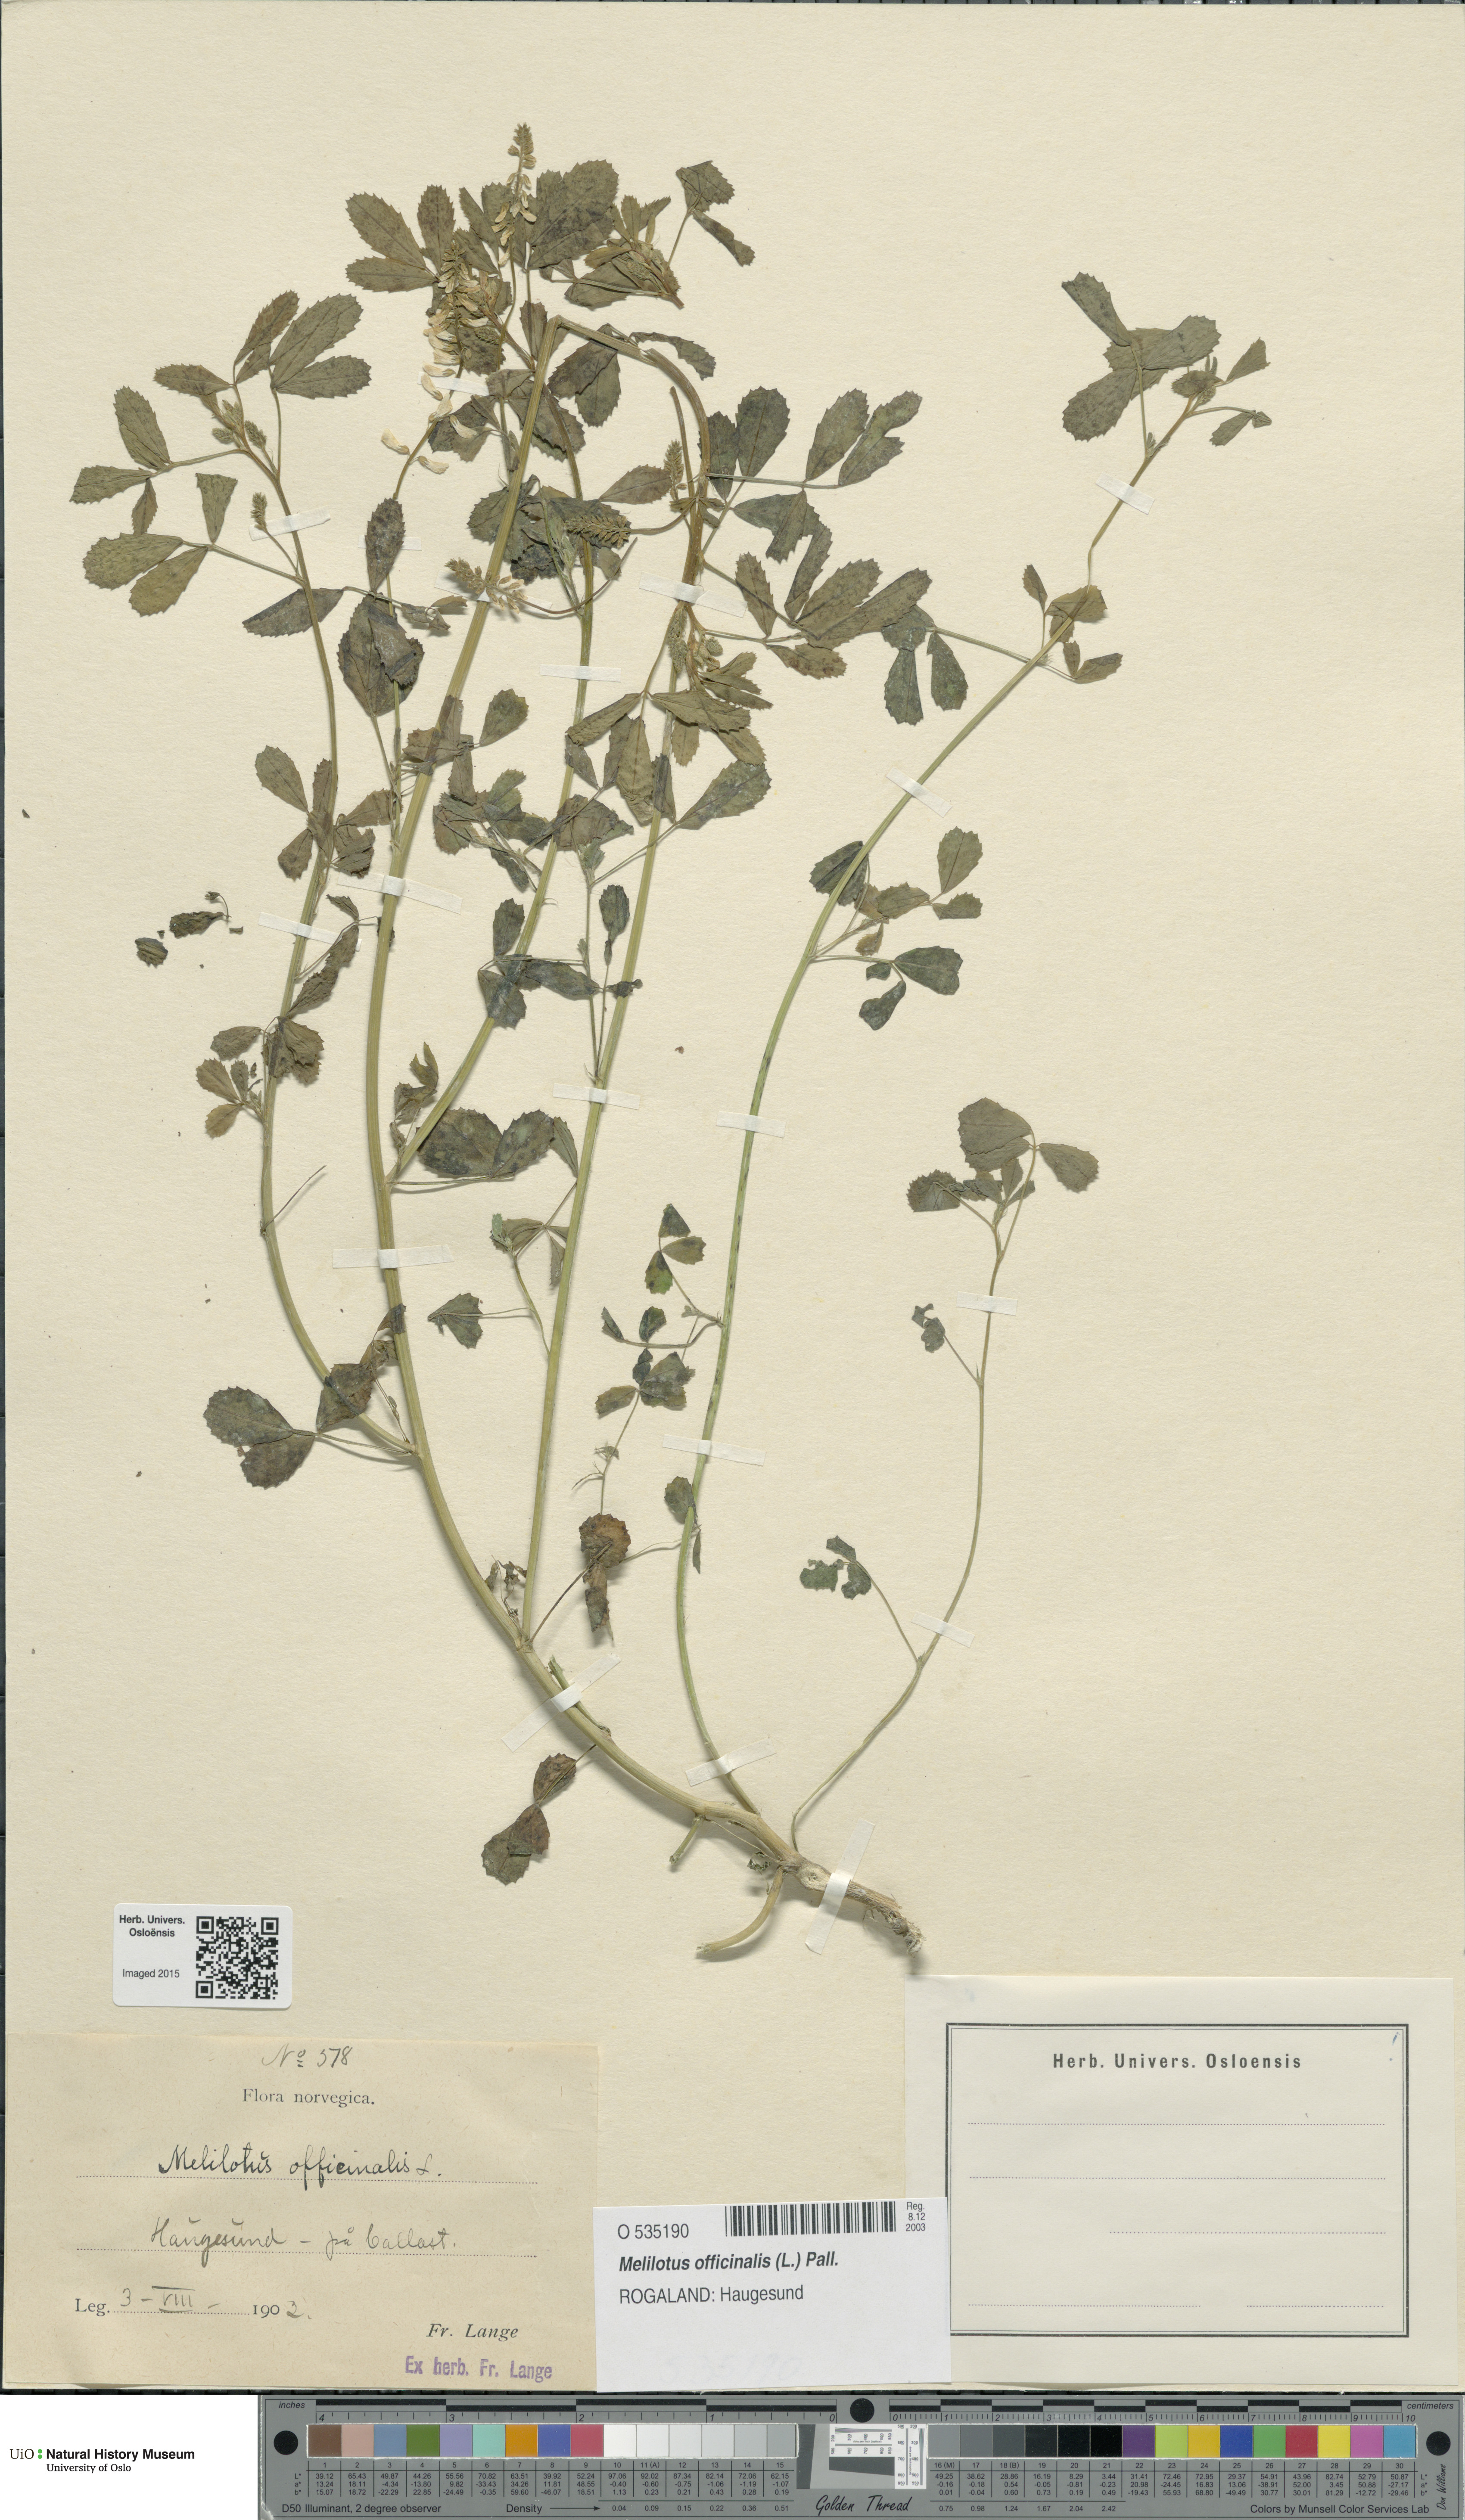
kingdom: Plantae
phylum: Tracheophyta
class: Magnoliopsida
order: Fabales
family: Fabaceae
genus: Melilotus
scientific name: Melilotus officinalis
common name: Sweetclover
